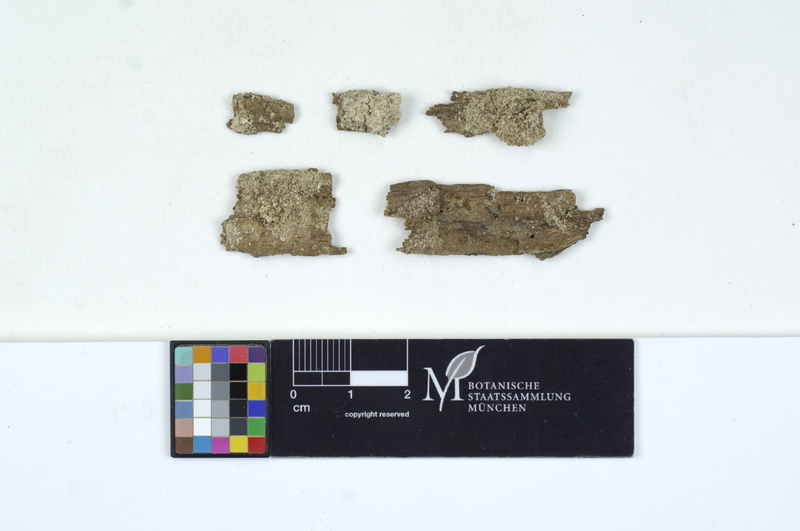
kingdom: Plantae
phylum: Tracheophyta
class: Magnoliopsida
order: Lamiales
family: Oleaceae
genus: Fraxinus
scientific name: Fraxinus
